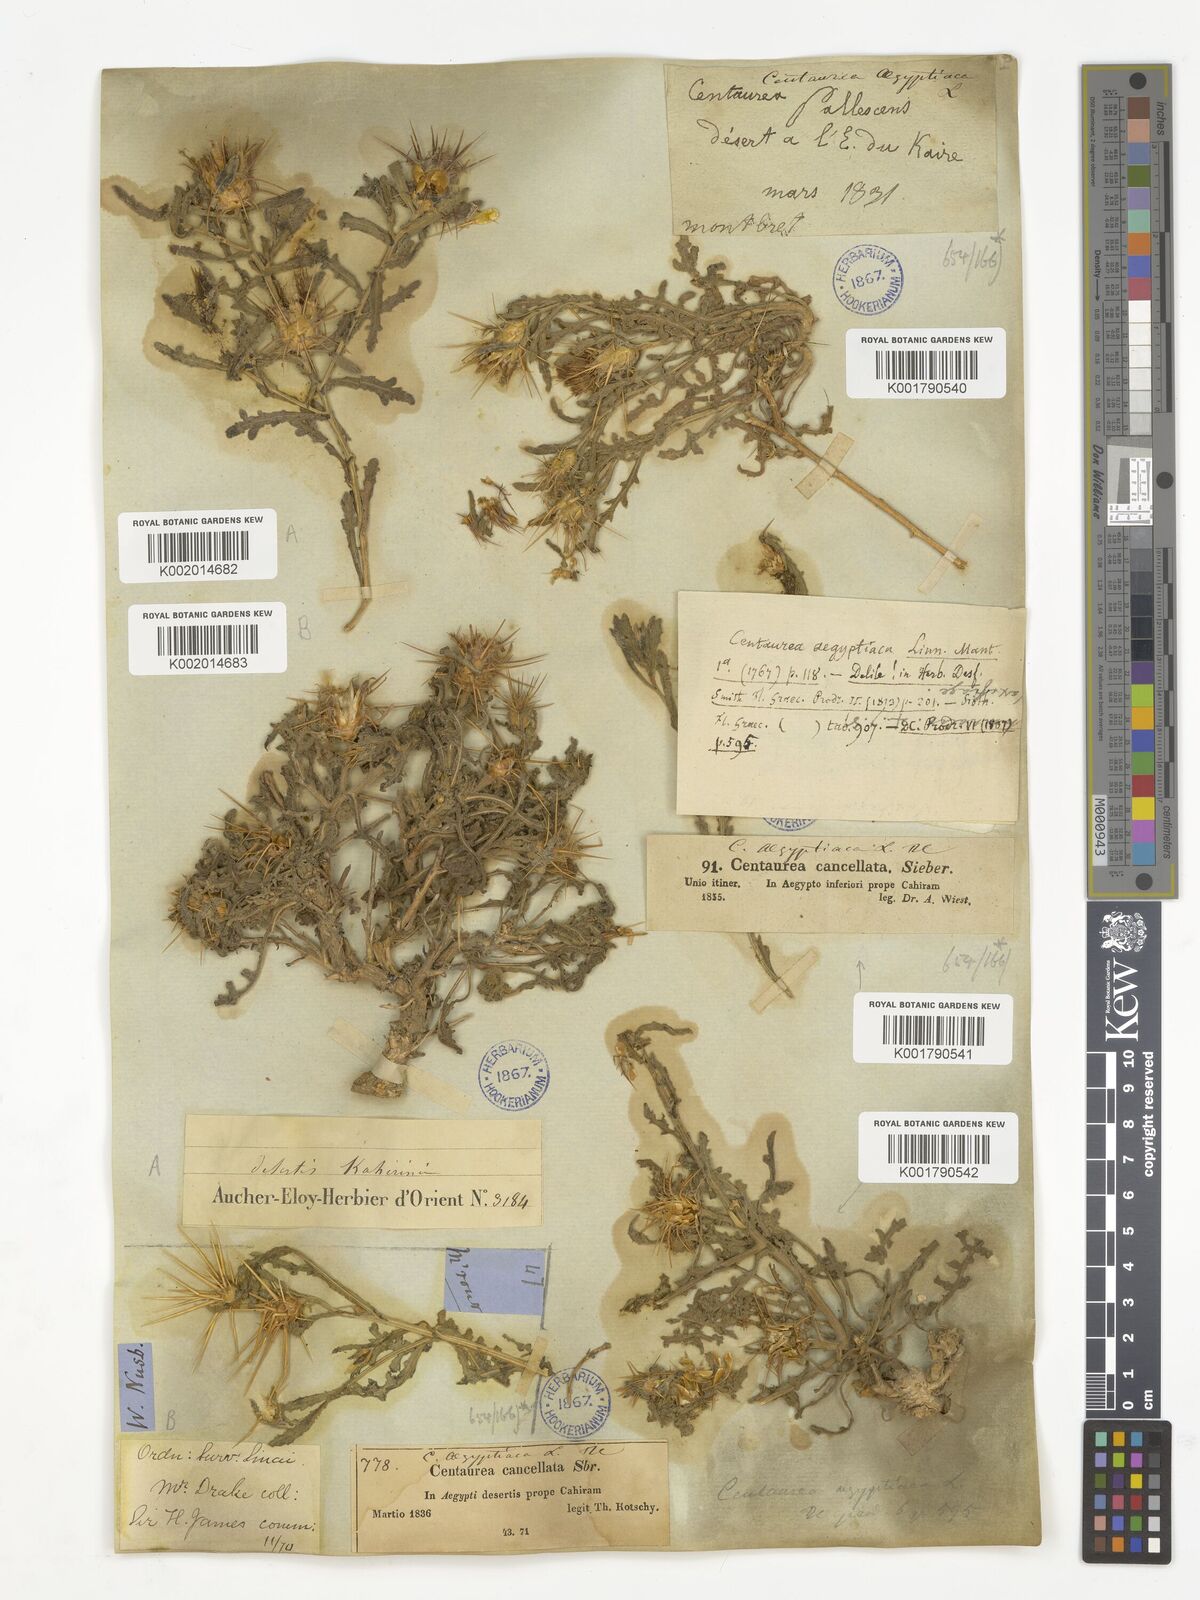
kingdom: Plantae
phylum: Tracheophyta
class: Magnoliopsida
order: Asterales
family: Asteraceae
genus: Centaurea
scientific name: Centaurea aegyptiaca
